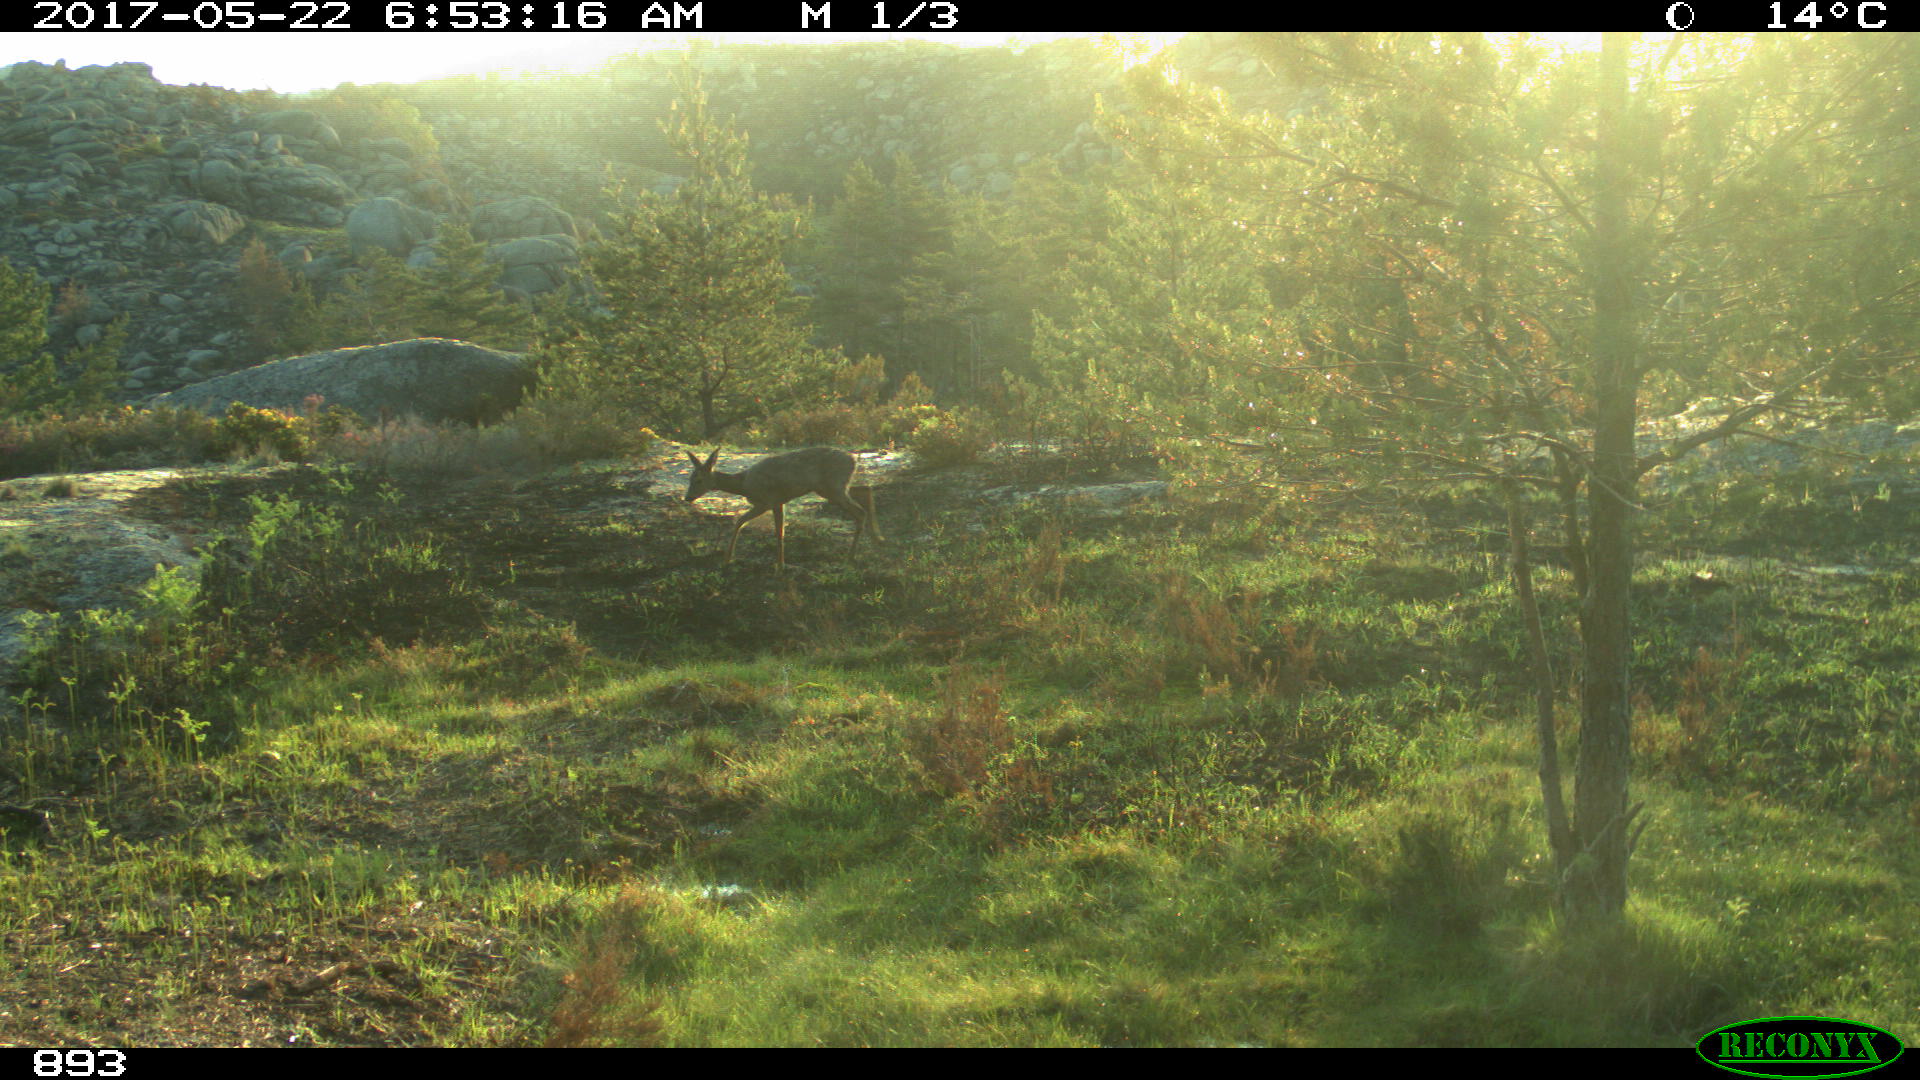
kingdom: Animalia
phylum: Chordata
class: Mammalia
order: Artiodactyla
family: Cervidae
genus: Capreolus
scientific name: Capreolus capreolus
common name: Western roe deer
